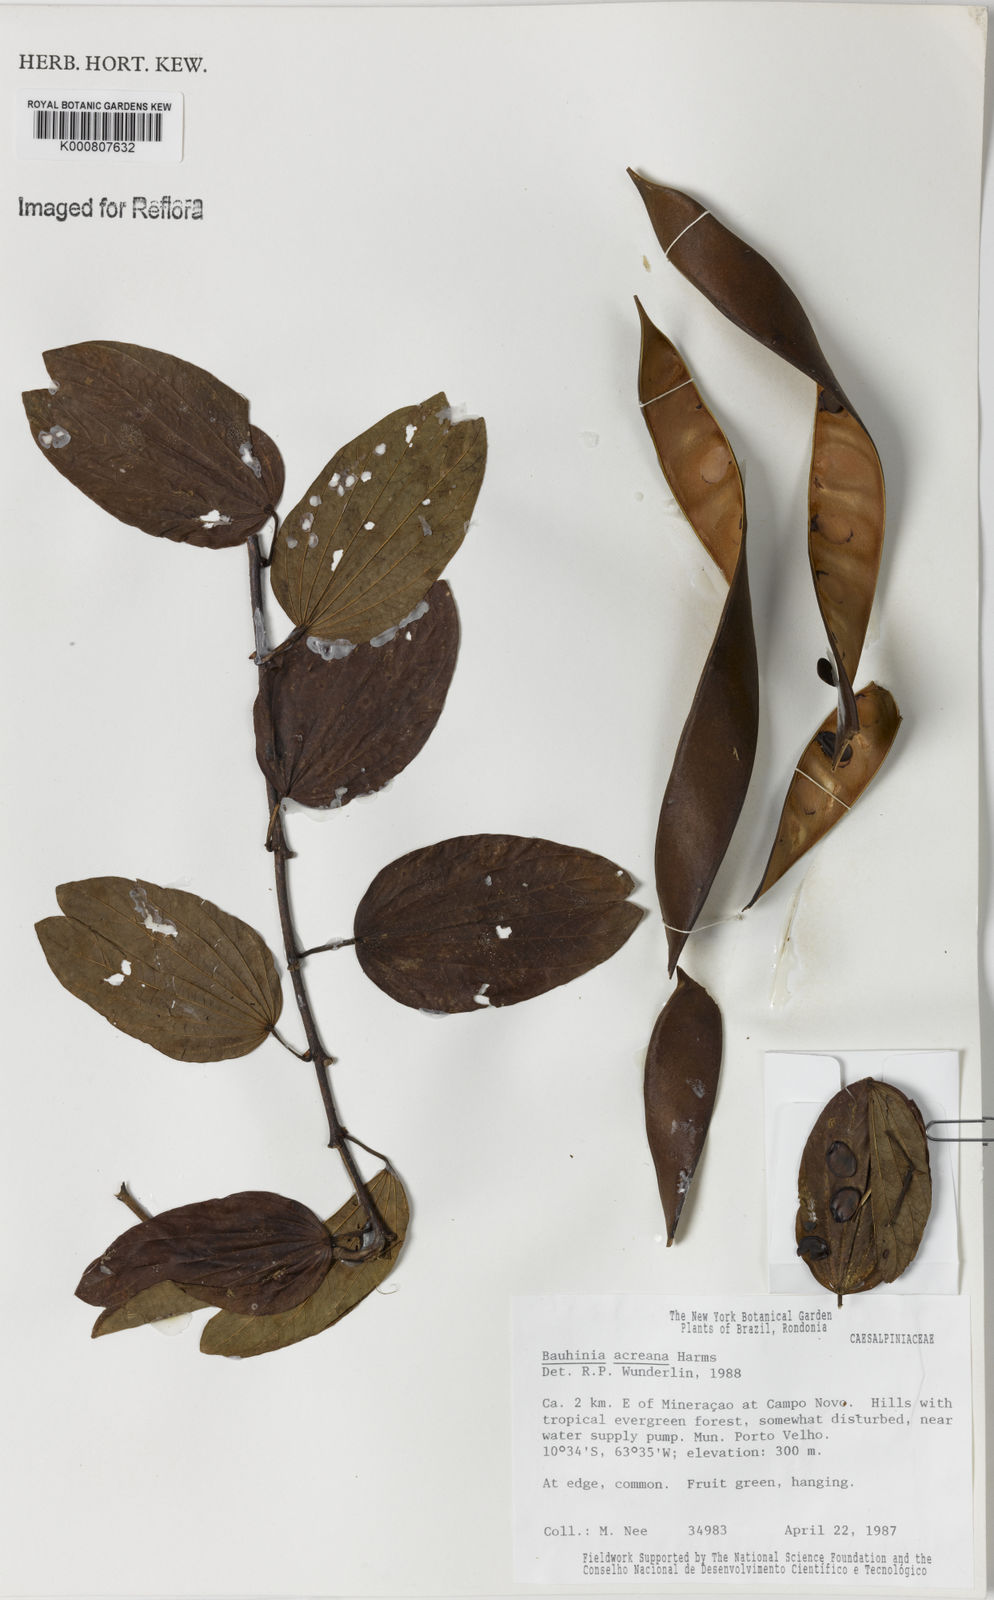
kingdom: Plantae
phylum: Tracheophyta
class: Magnoliopsida
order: Fabales
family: Fabaceae
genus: Bauhinia
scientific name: Bauhinia acreana
